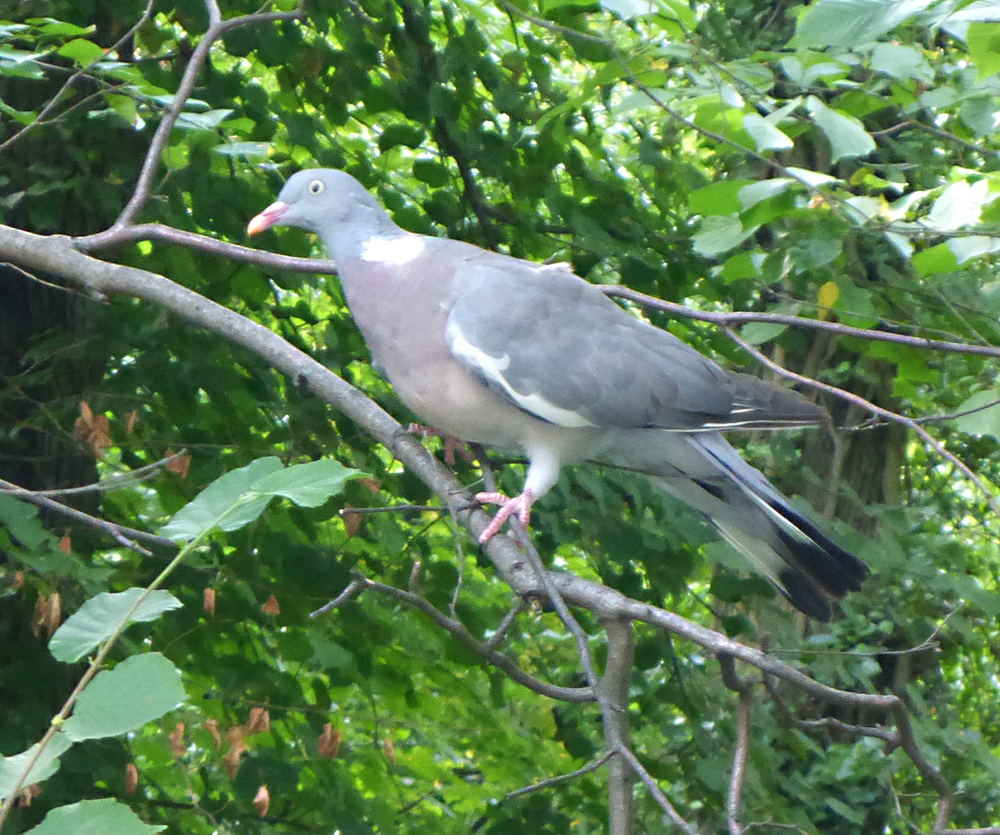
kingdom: Animalia
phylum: Chordata
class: Aves
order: Columbiformes
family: Columbidae
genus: Columba
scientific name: Columba palumbus
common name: Common wood pigeon
